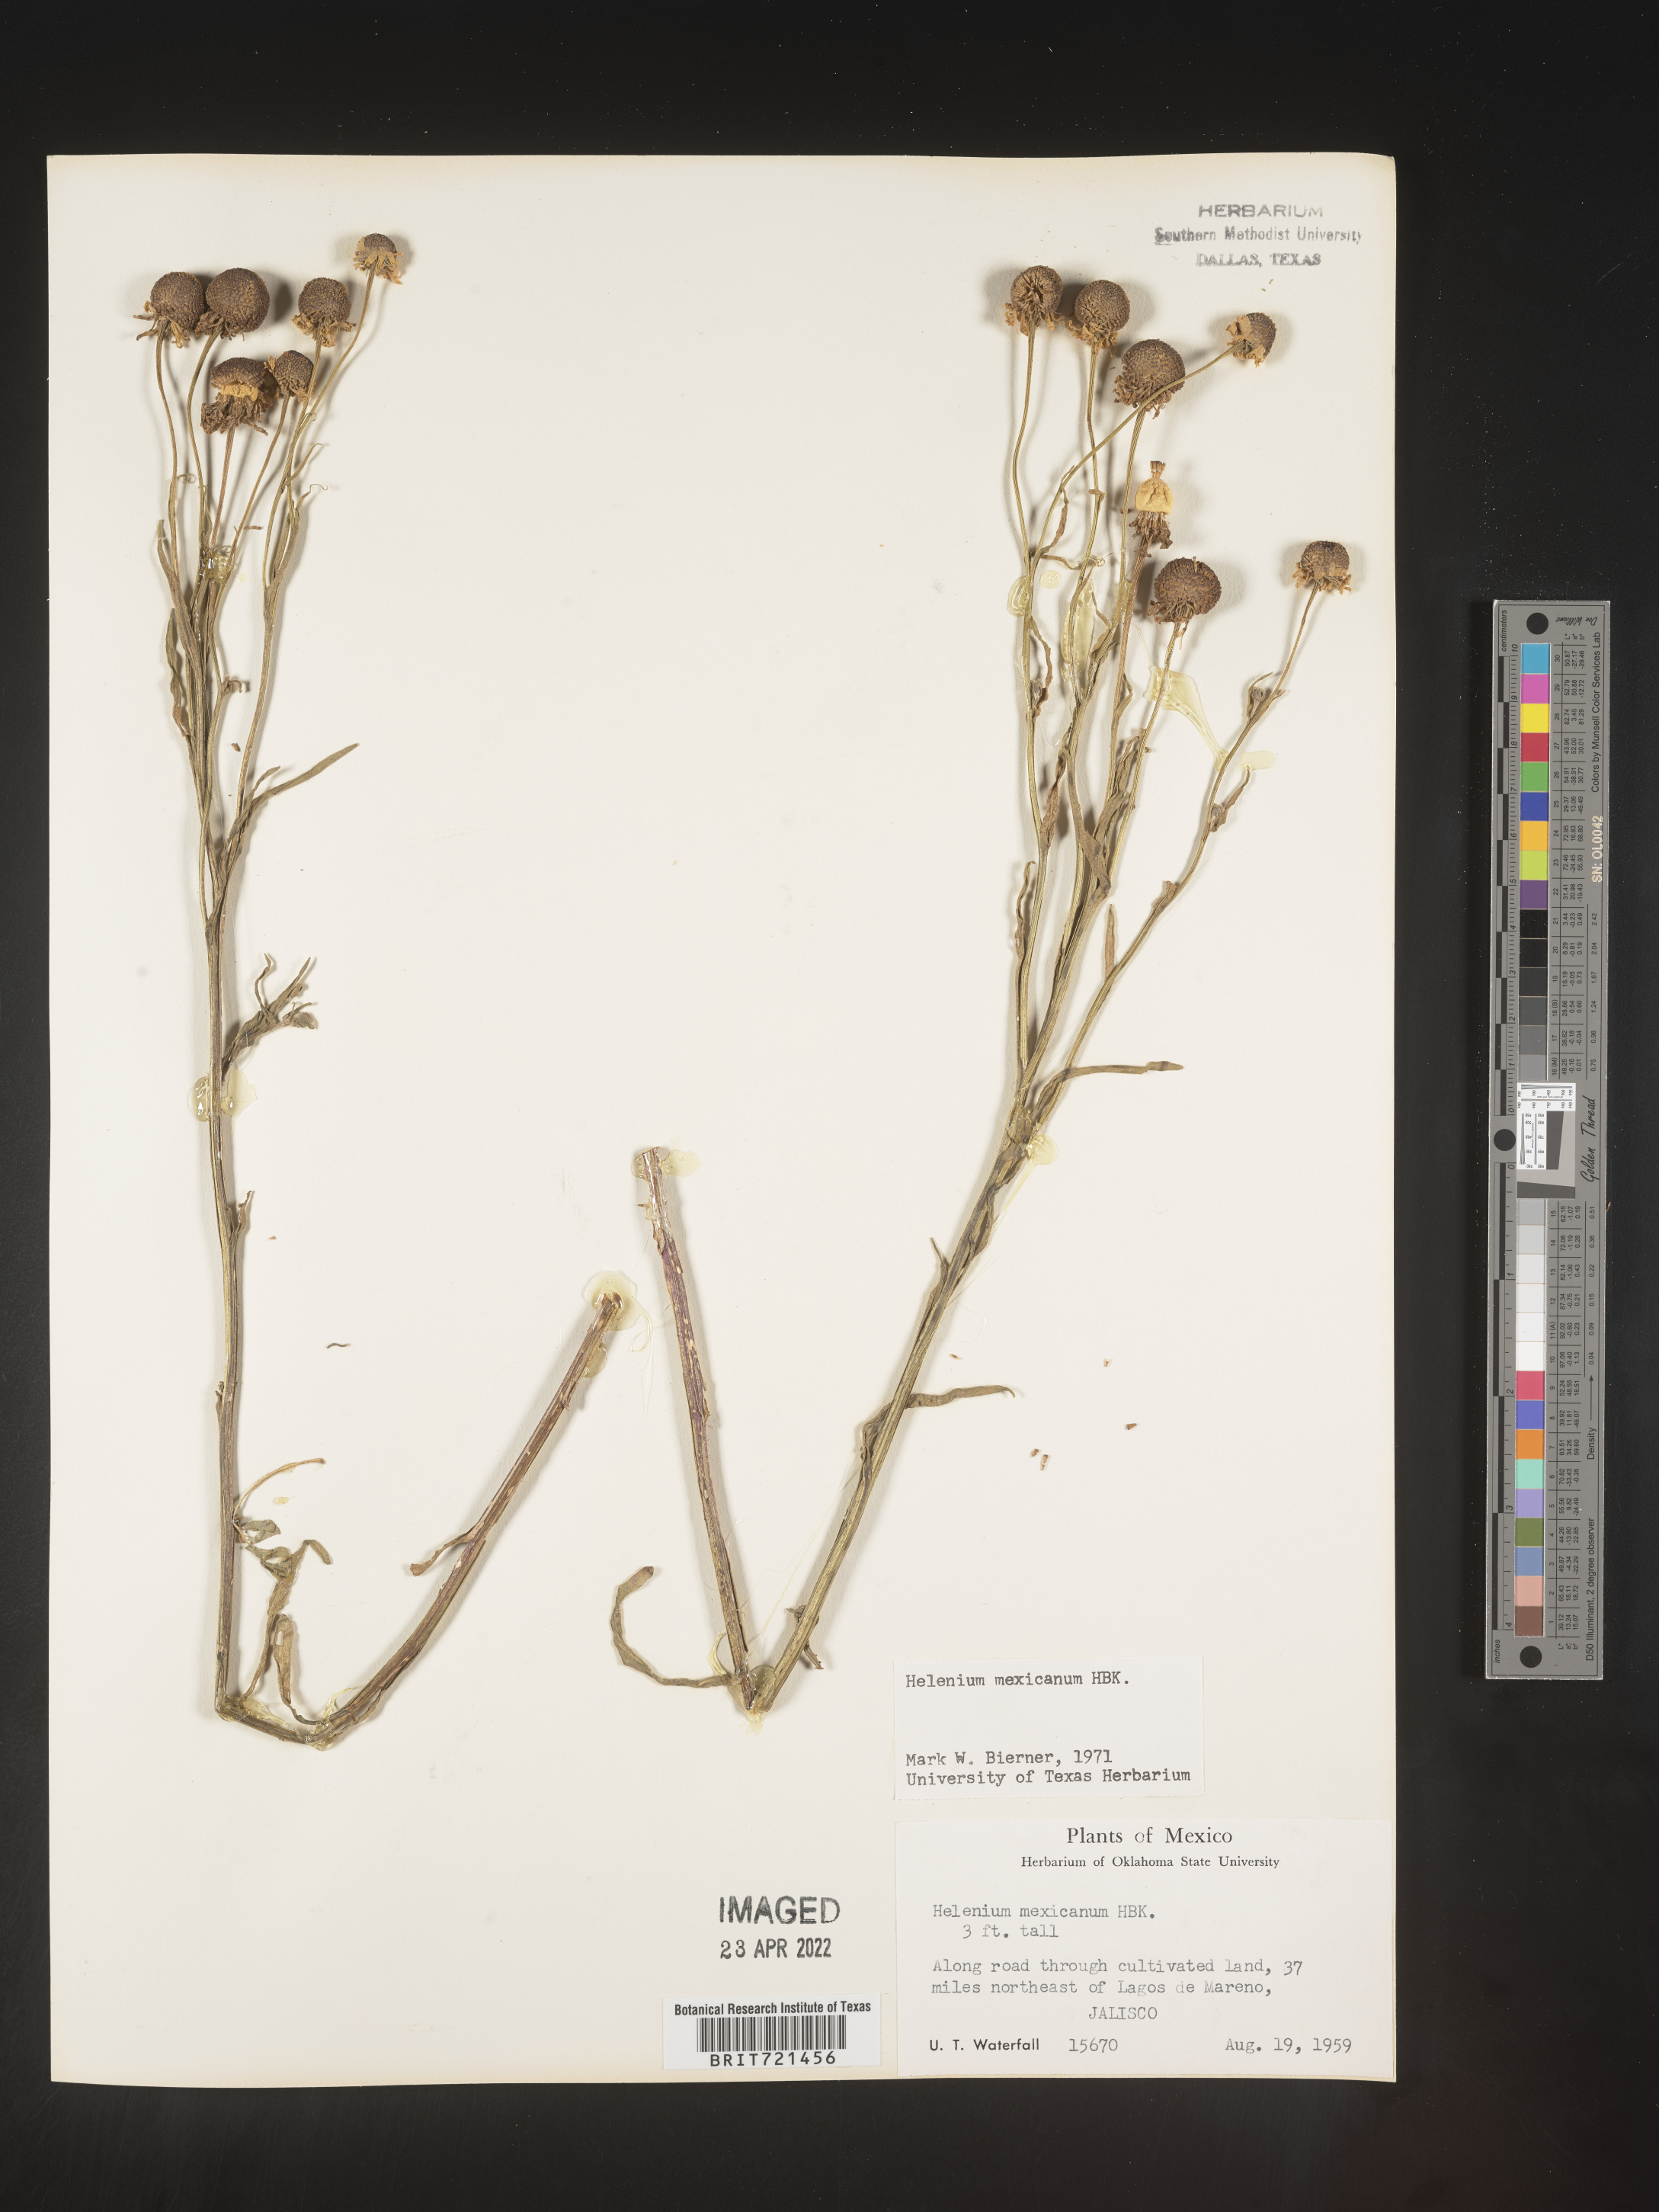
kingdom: Plantae
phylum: Tracheophyta
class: Magnoliopsida
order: Asterales
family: Asteraceae
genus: Helenium
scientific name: Helenium
